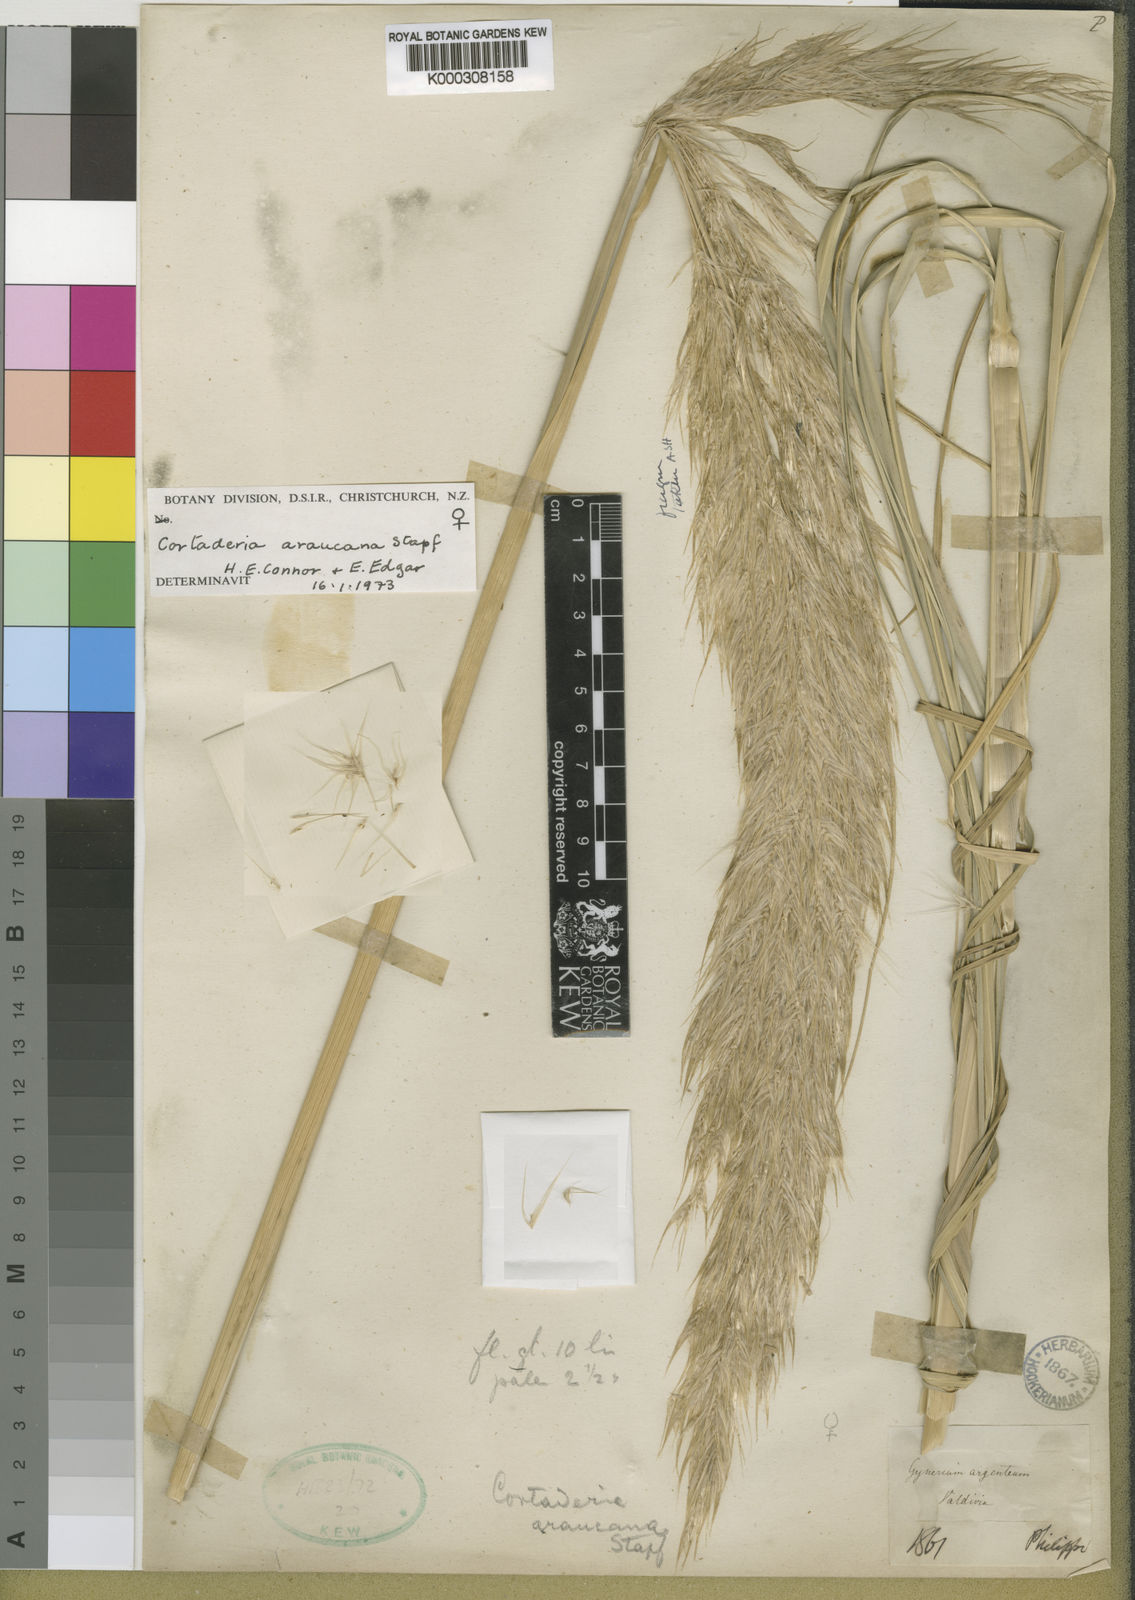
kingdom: Plantae
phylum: Tracheophyta
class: Liliopsida
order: Poales
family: Poaceae
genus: Cortaderia
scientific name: Cortaderia araucana
